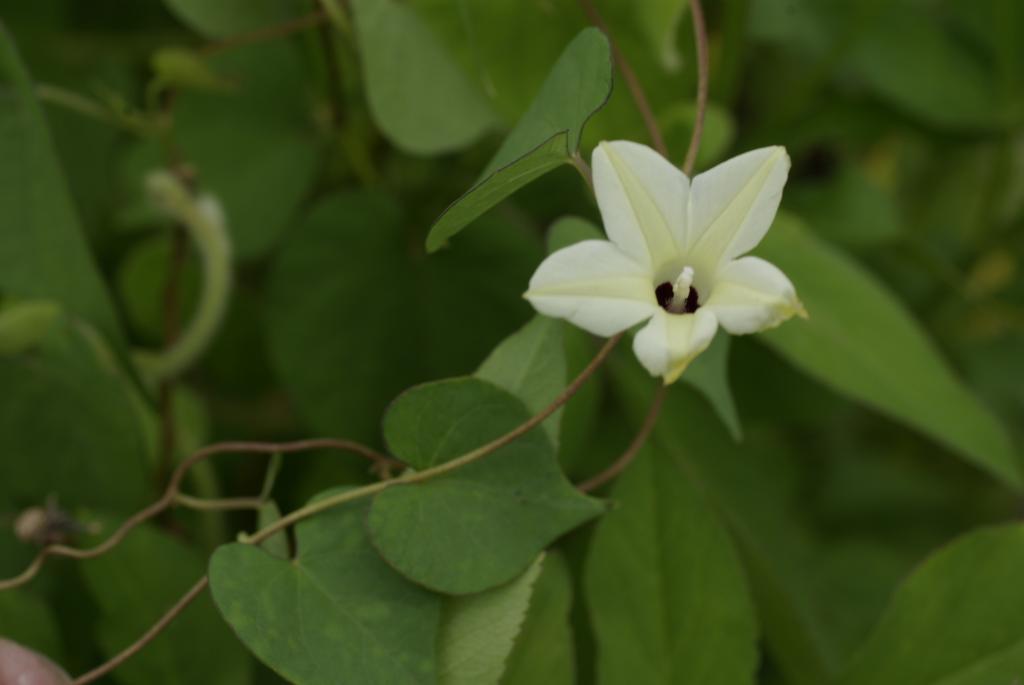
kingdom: Plantae
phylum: Tracheophyta
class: Magnoliopsida
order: Solanales
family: Convolvulaceae
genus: Ipomoea
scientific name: Ipomoea obscura
